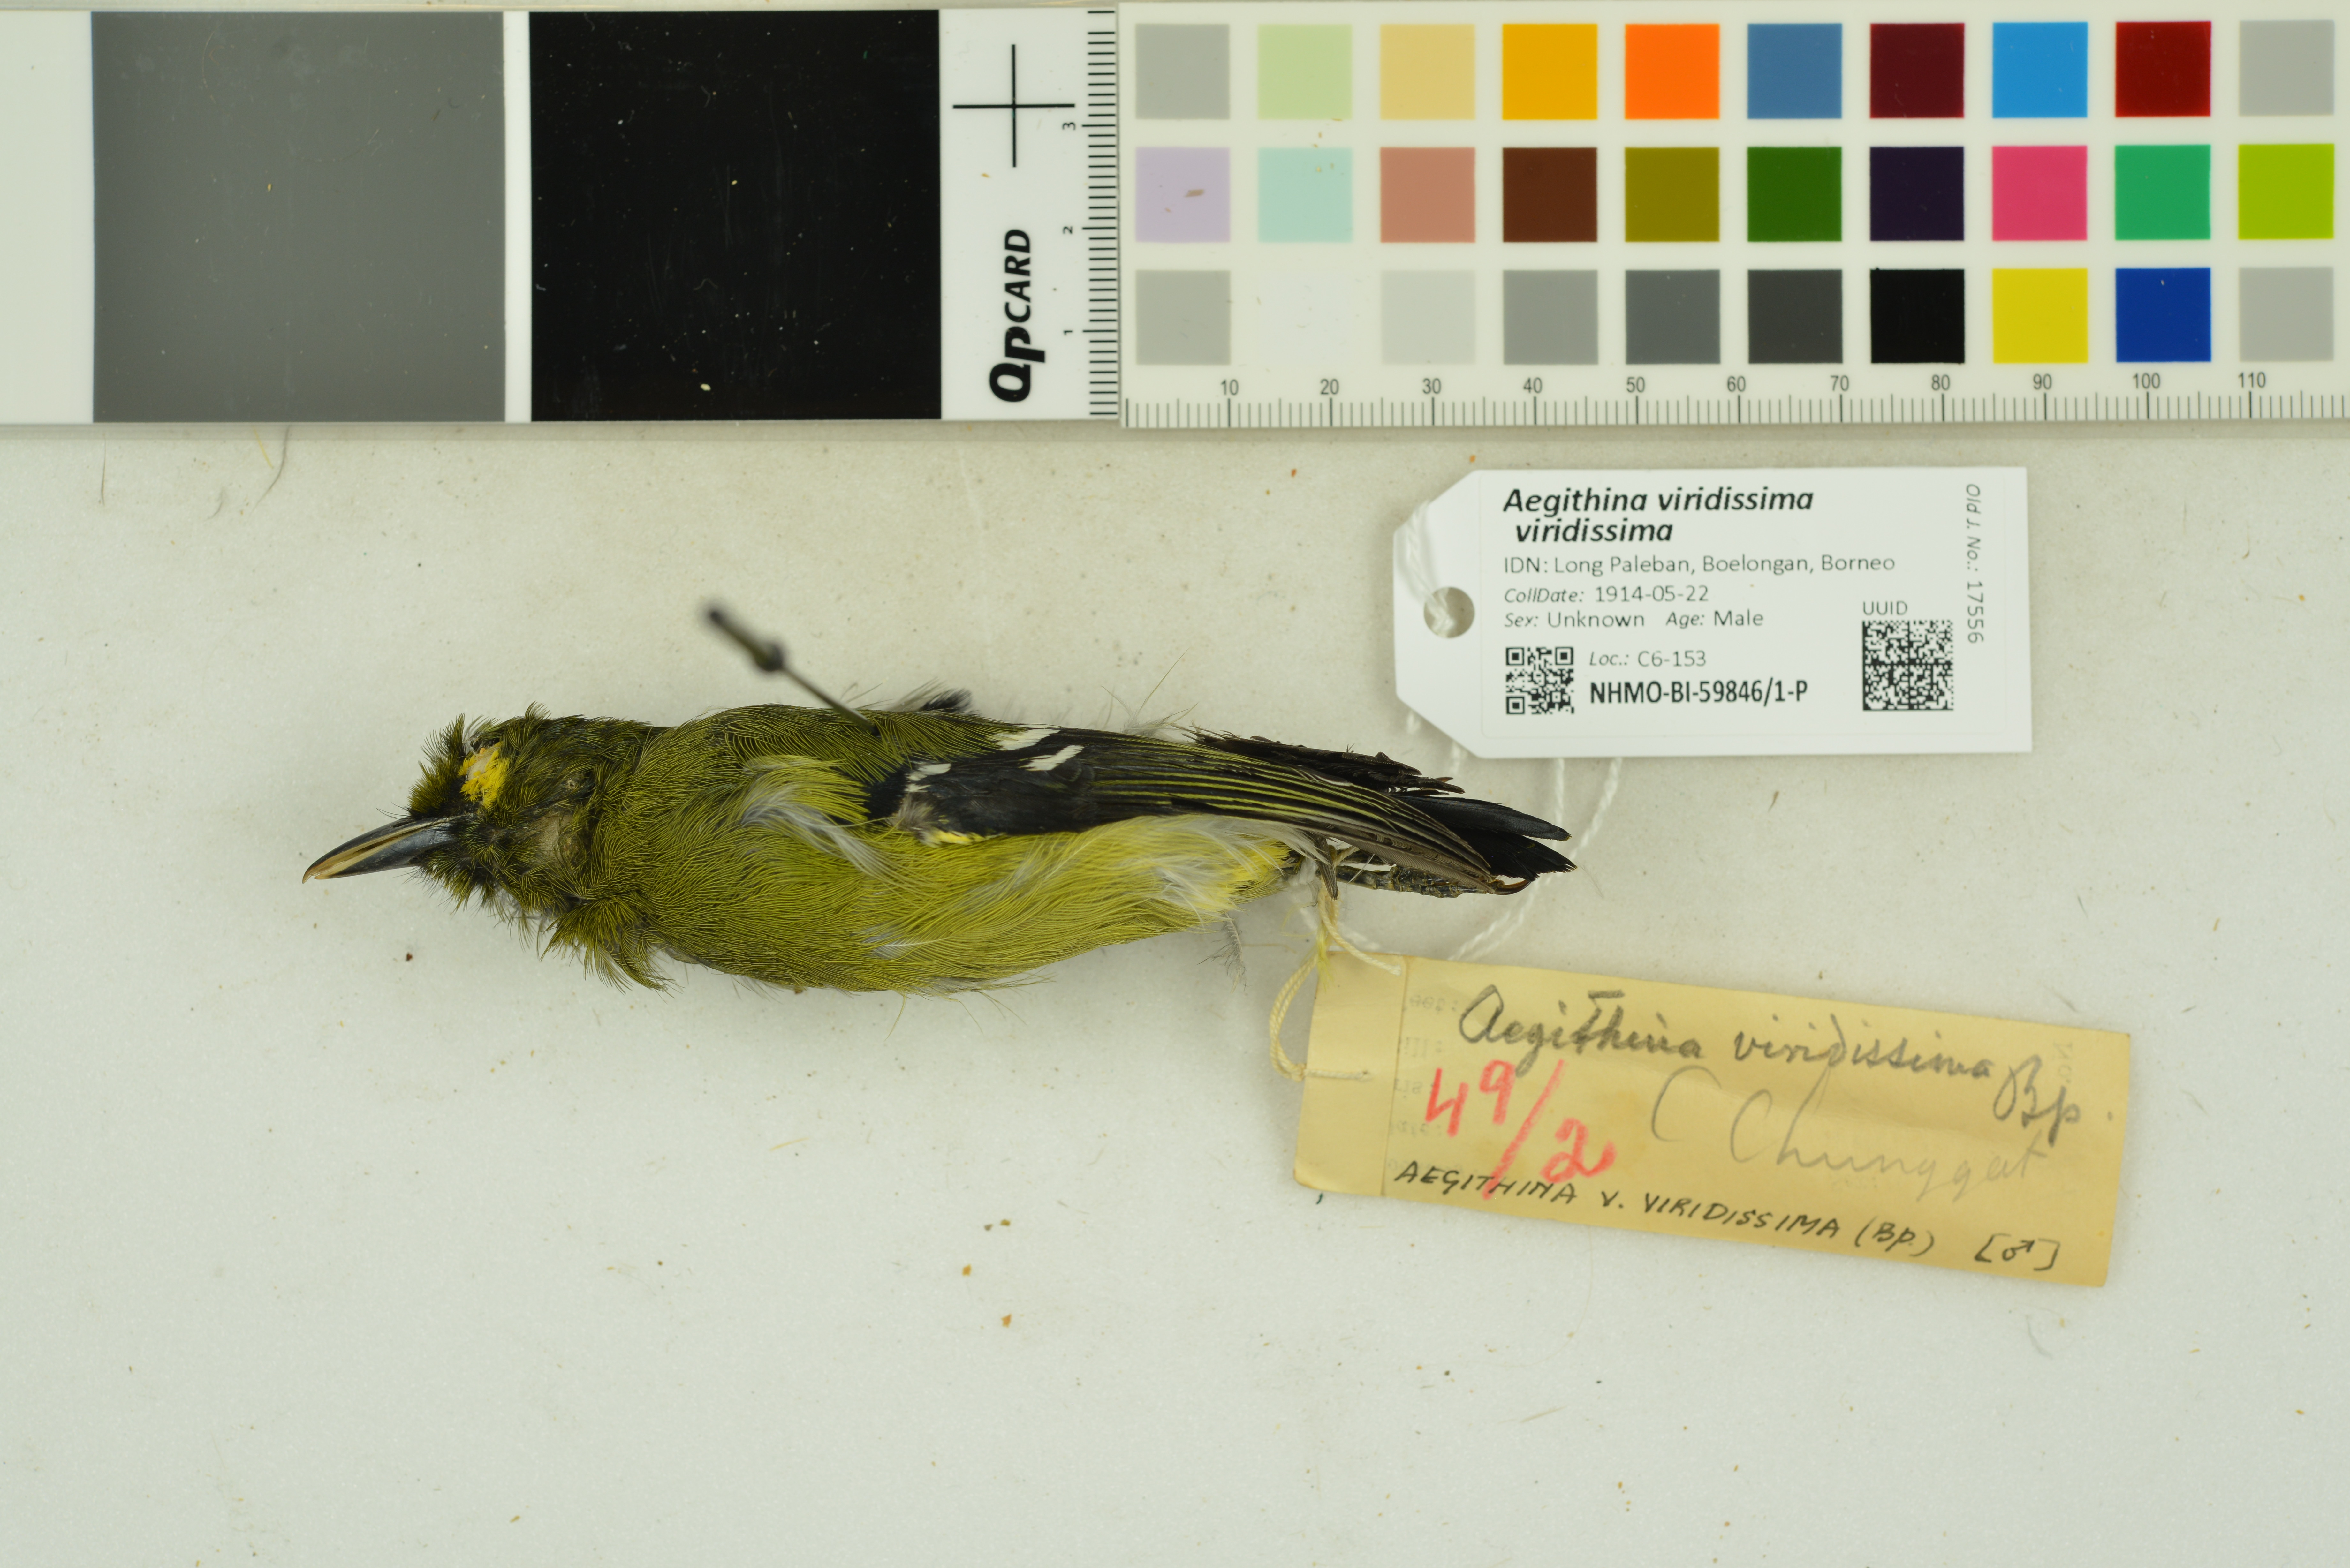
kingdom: Animalia
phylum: Chordata
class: Aves
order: Passeriformes
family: Aegithinidae
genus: Aegithina
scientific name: Aegithina viridissima
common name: Green iora
